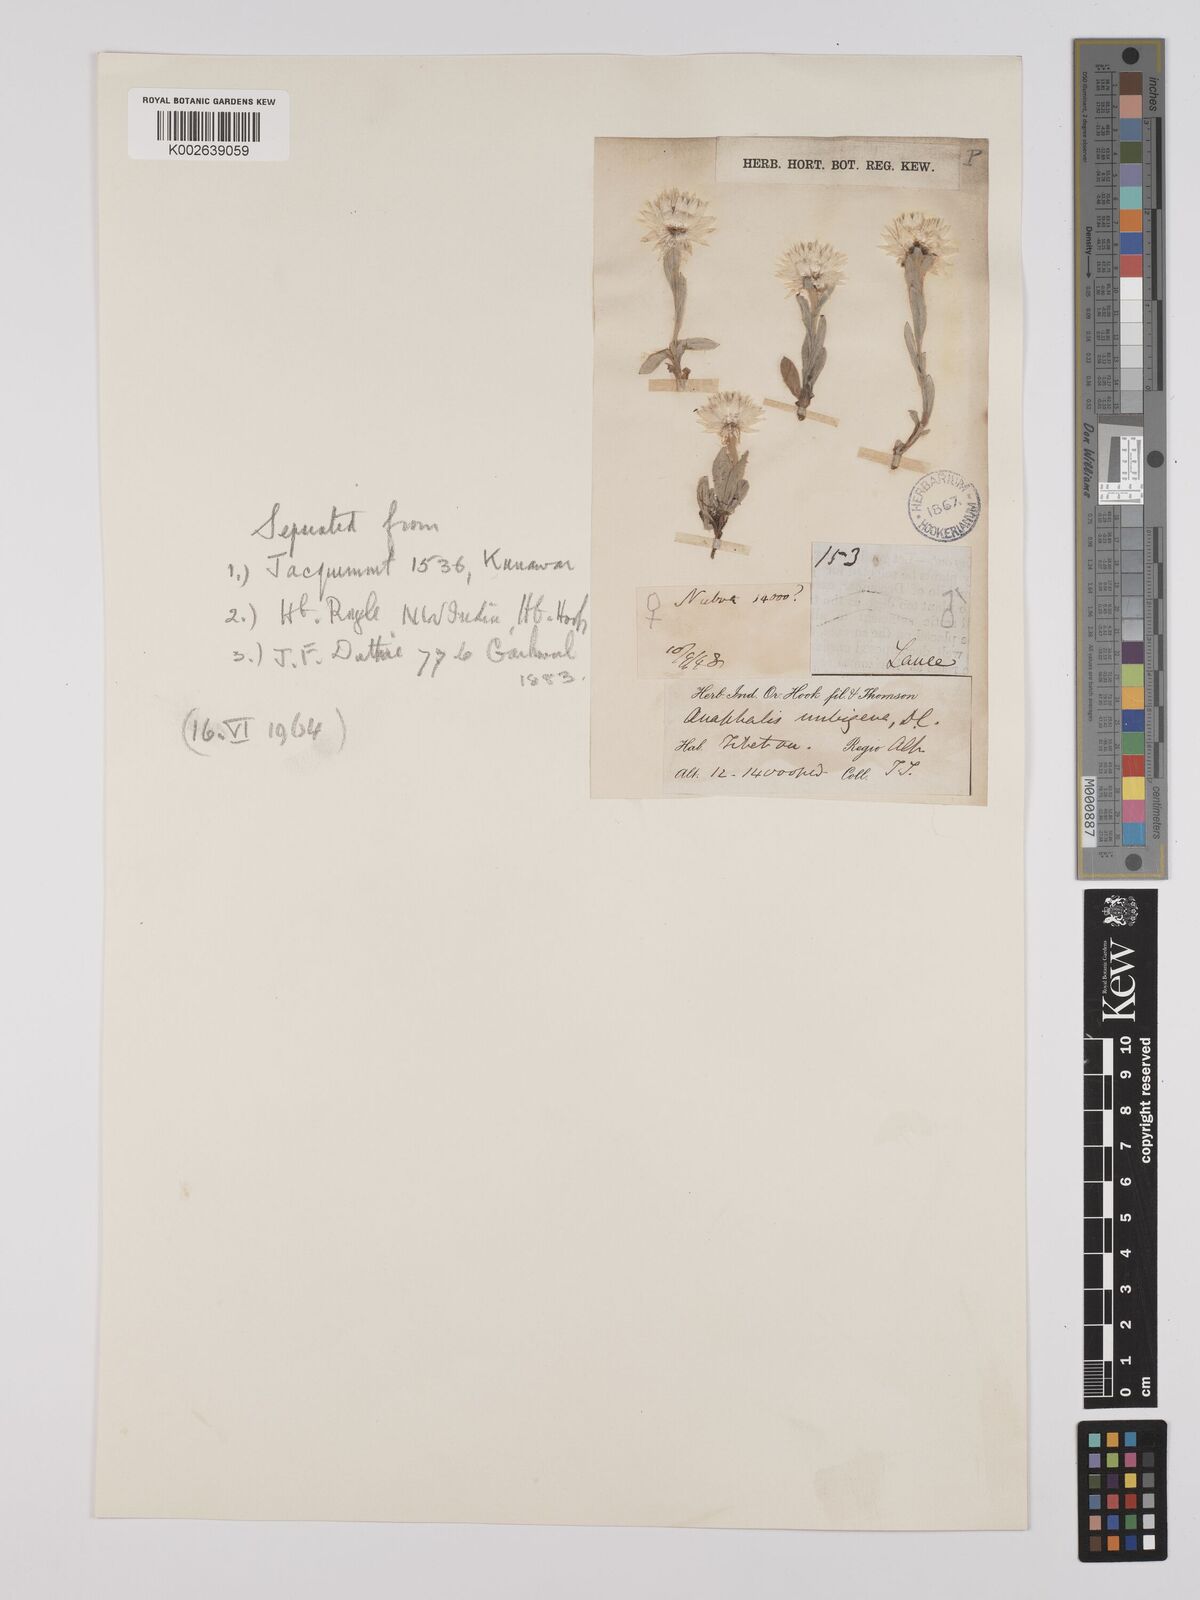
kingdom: Plantae
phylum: Tracheophyta
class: Magnoliopsida
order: Asterales
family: Asteraceae
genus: Anaphalis
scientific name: Anaphalis nepalensis
